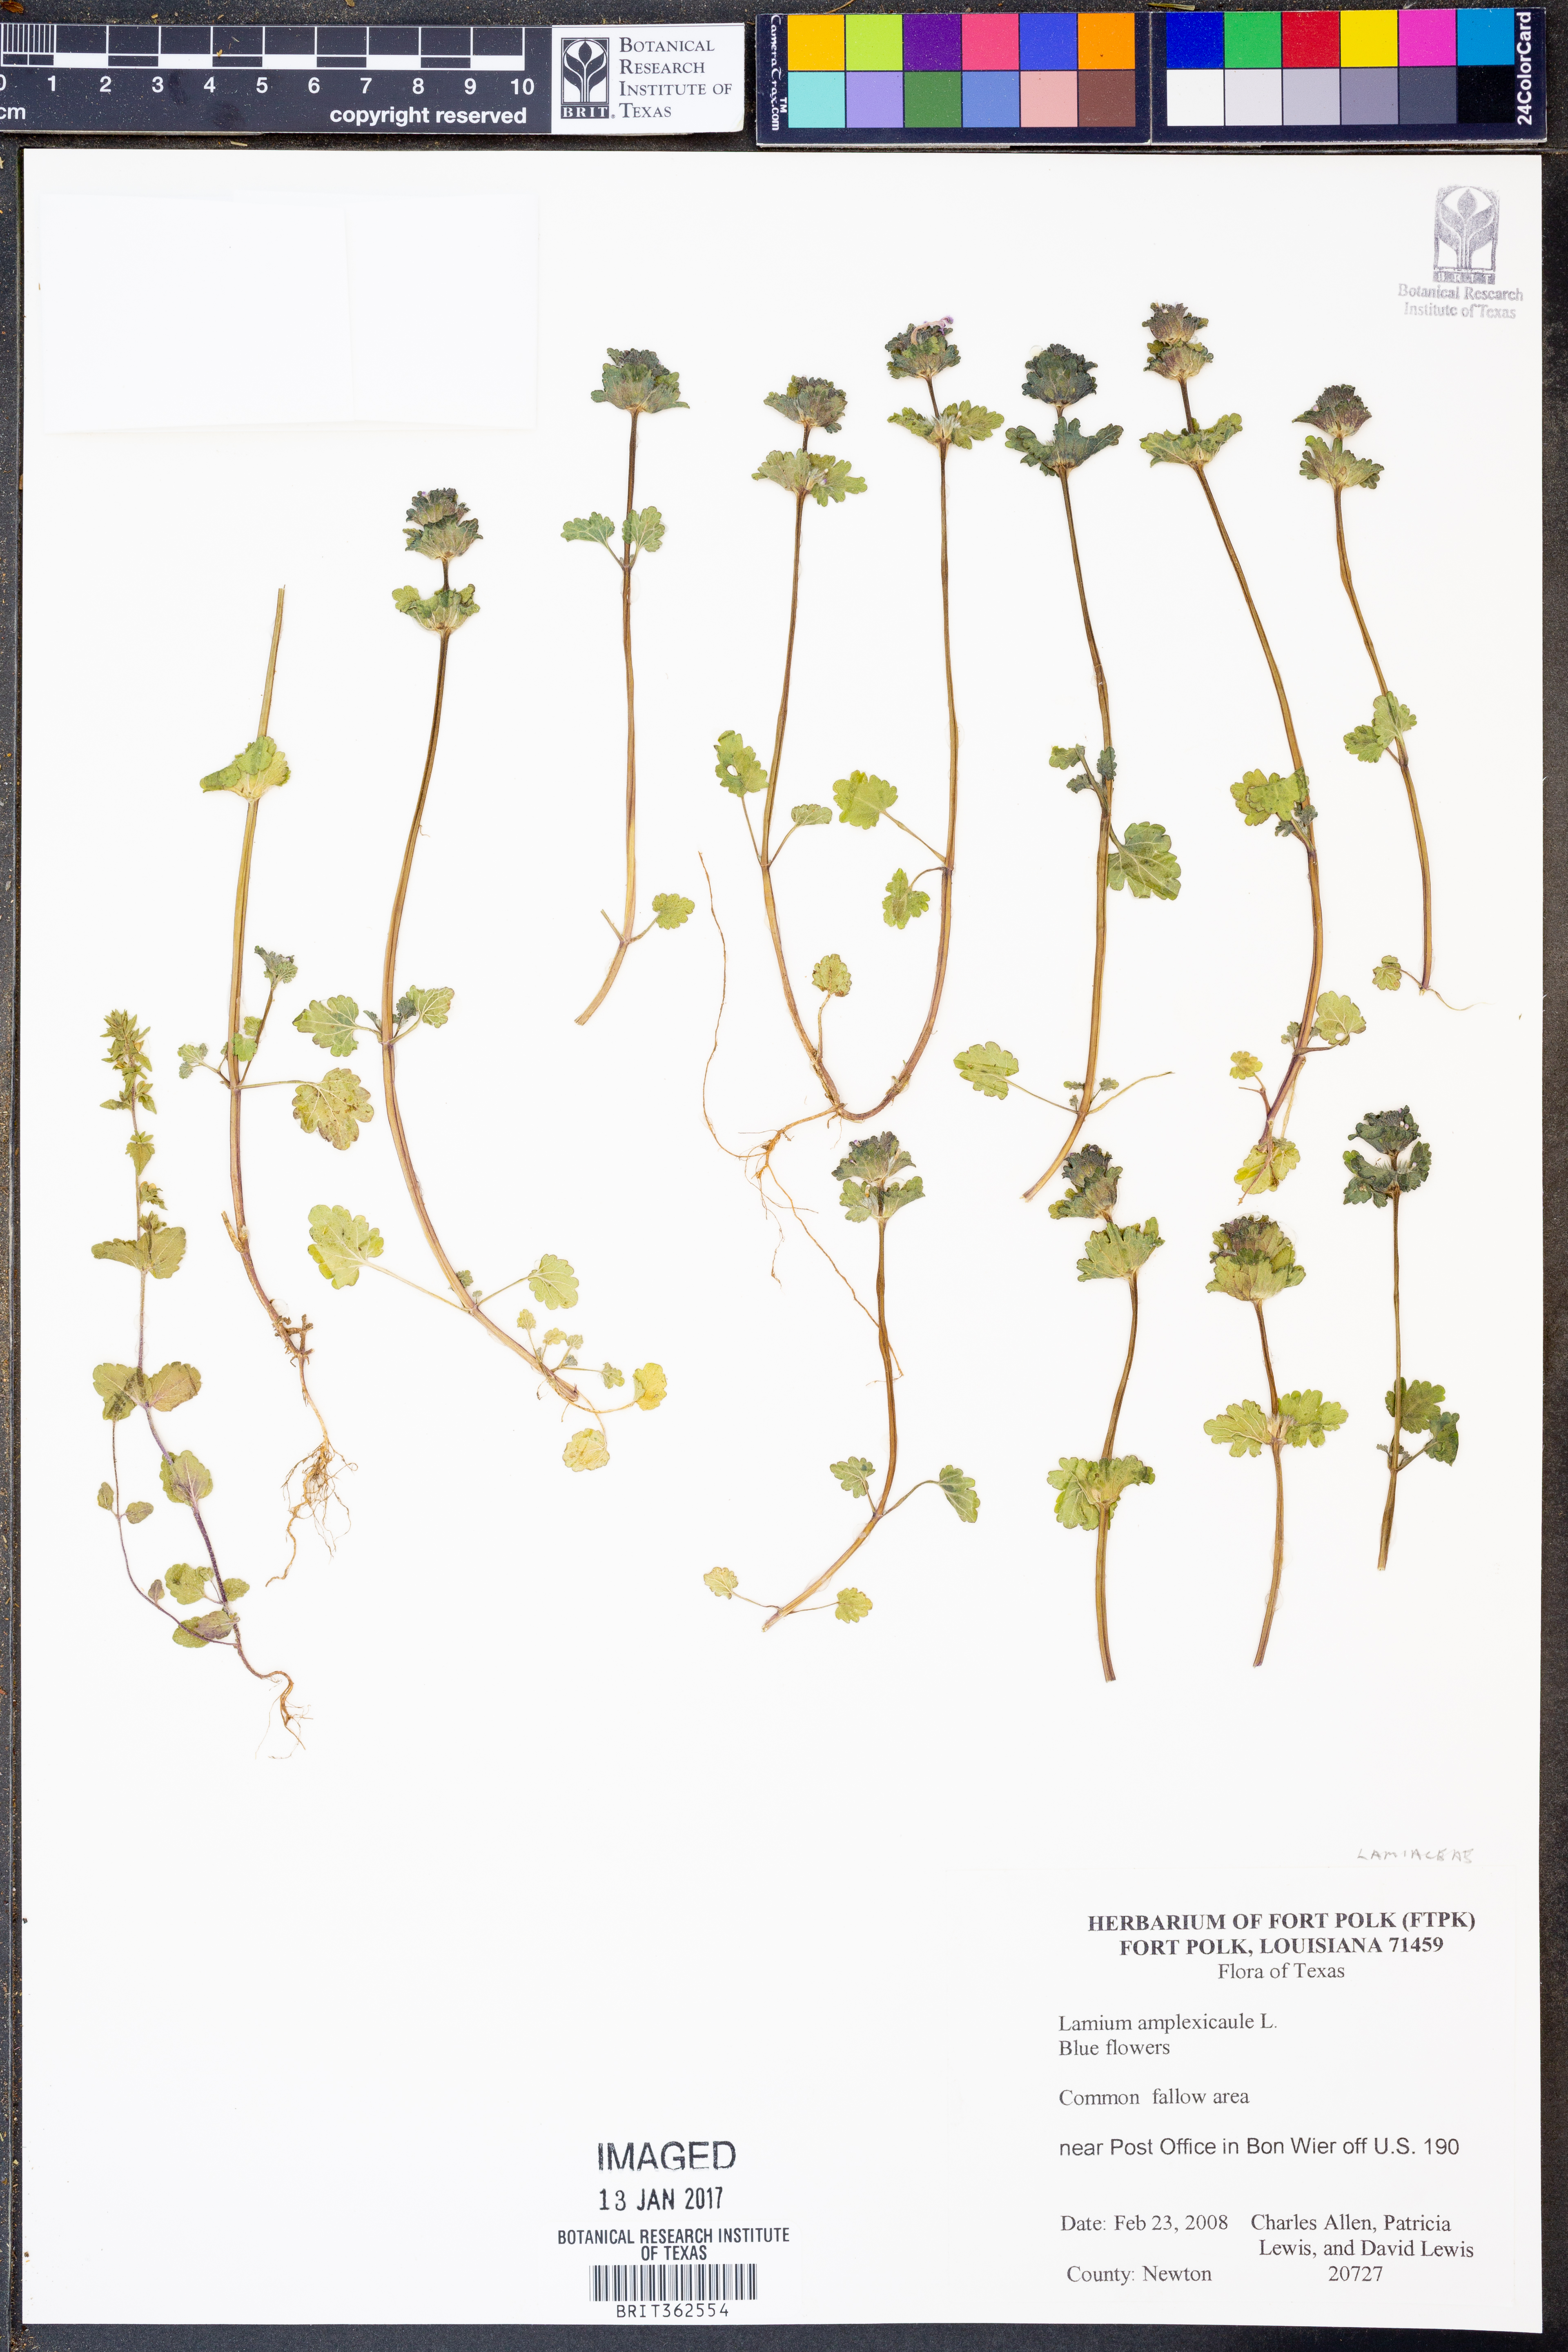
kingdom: Plantae
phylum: Tracheophyta
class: Magnoliopsida
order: Lamiales
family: Lamiaceae
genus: Lamium
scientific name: Lamium amplexicaule
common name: Henbit dead-nettle
